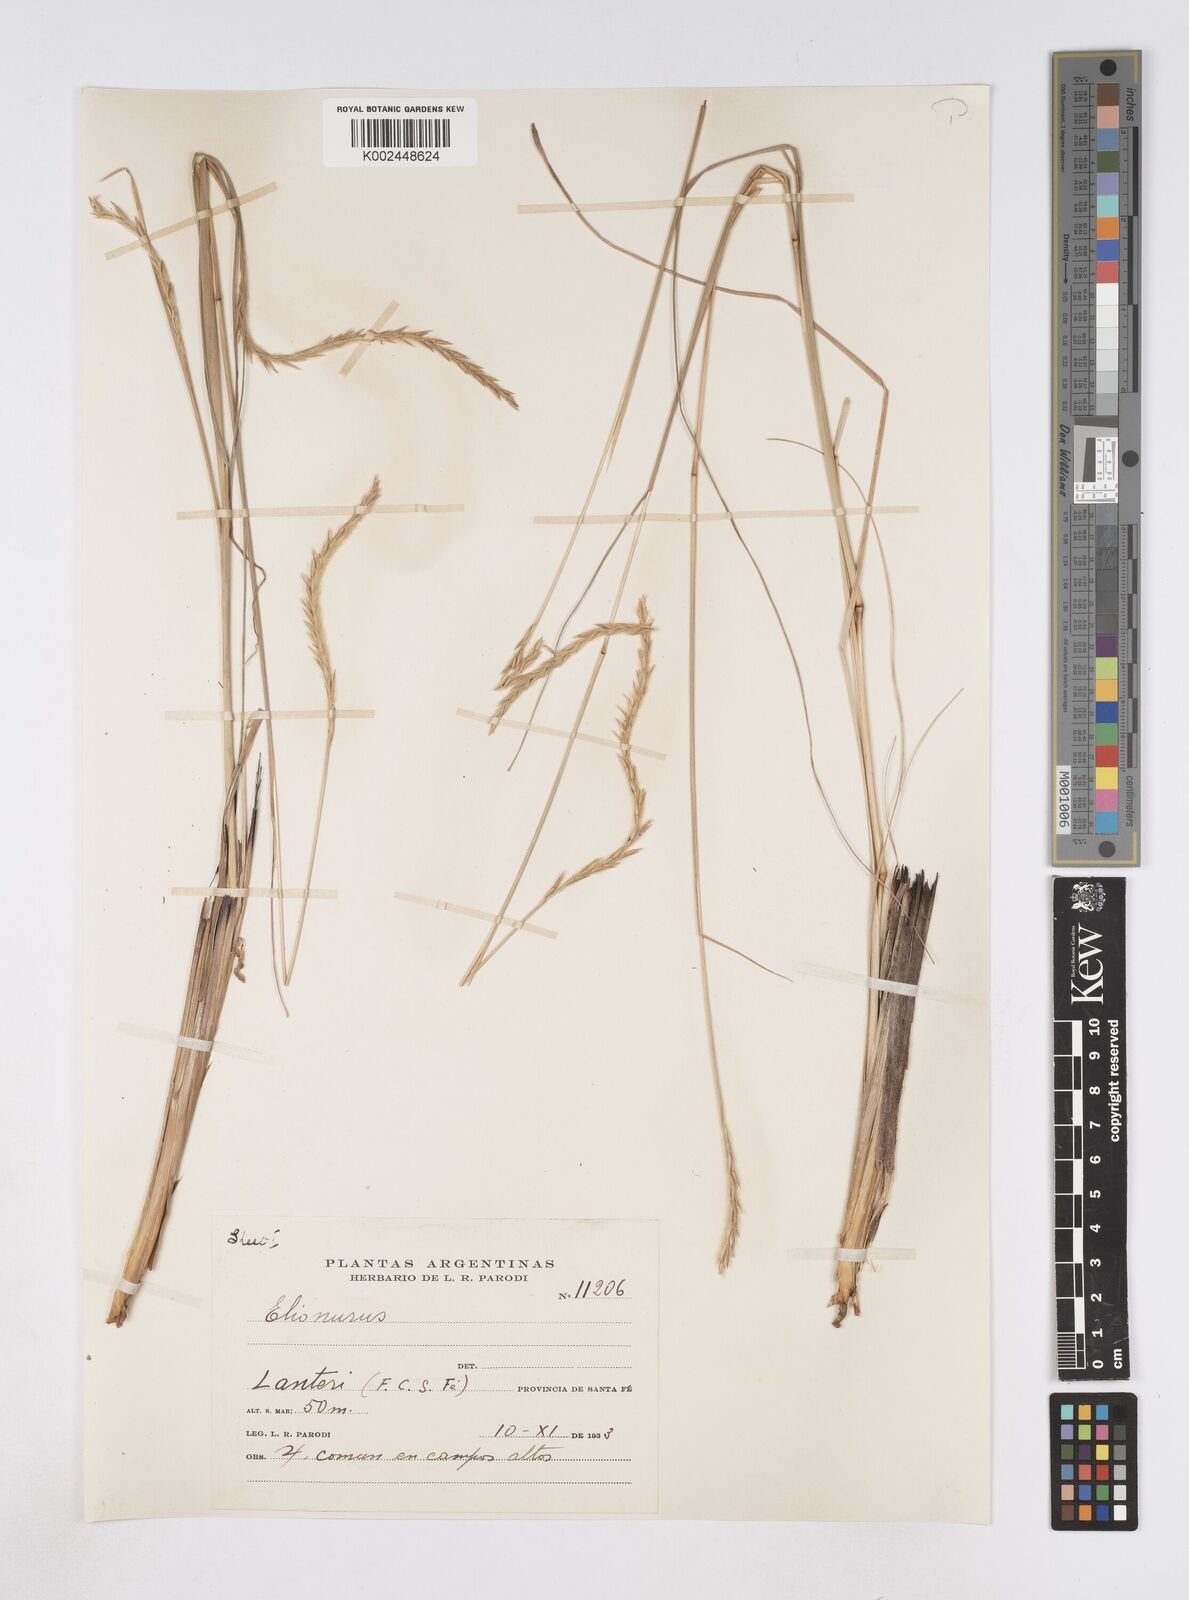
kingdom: Plantae
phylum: Tracheophyta
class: Liliopsida
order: Poales
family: Poaceae
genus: Elionurus
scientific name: Elionurus muticus
